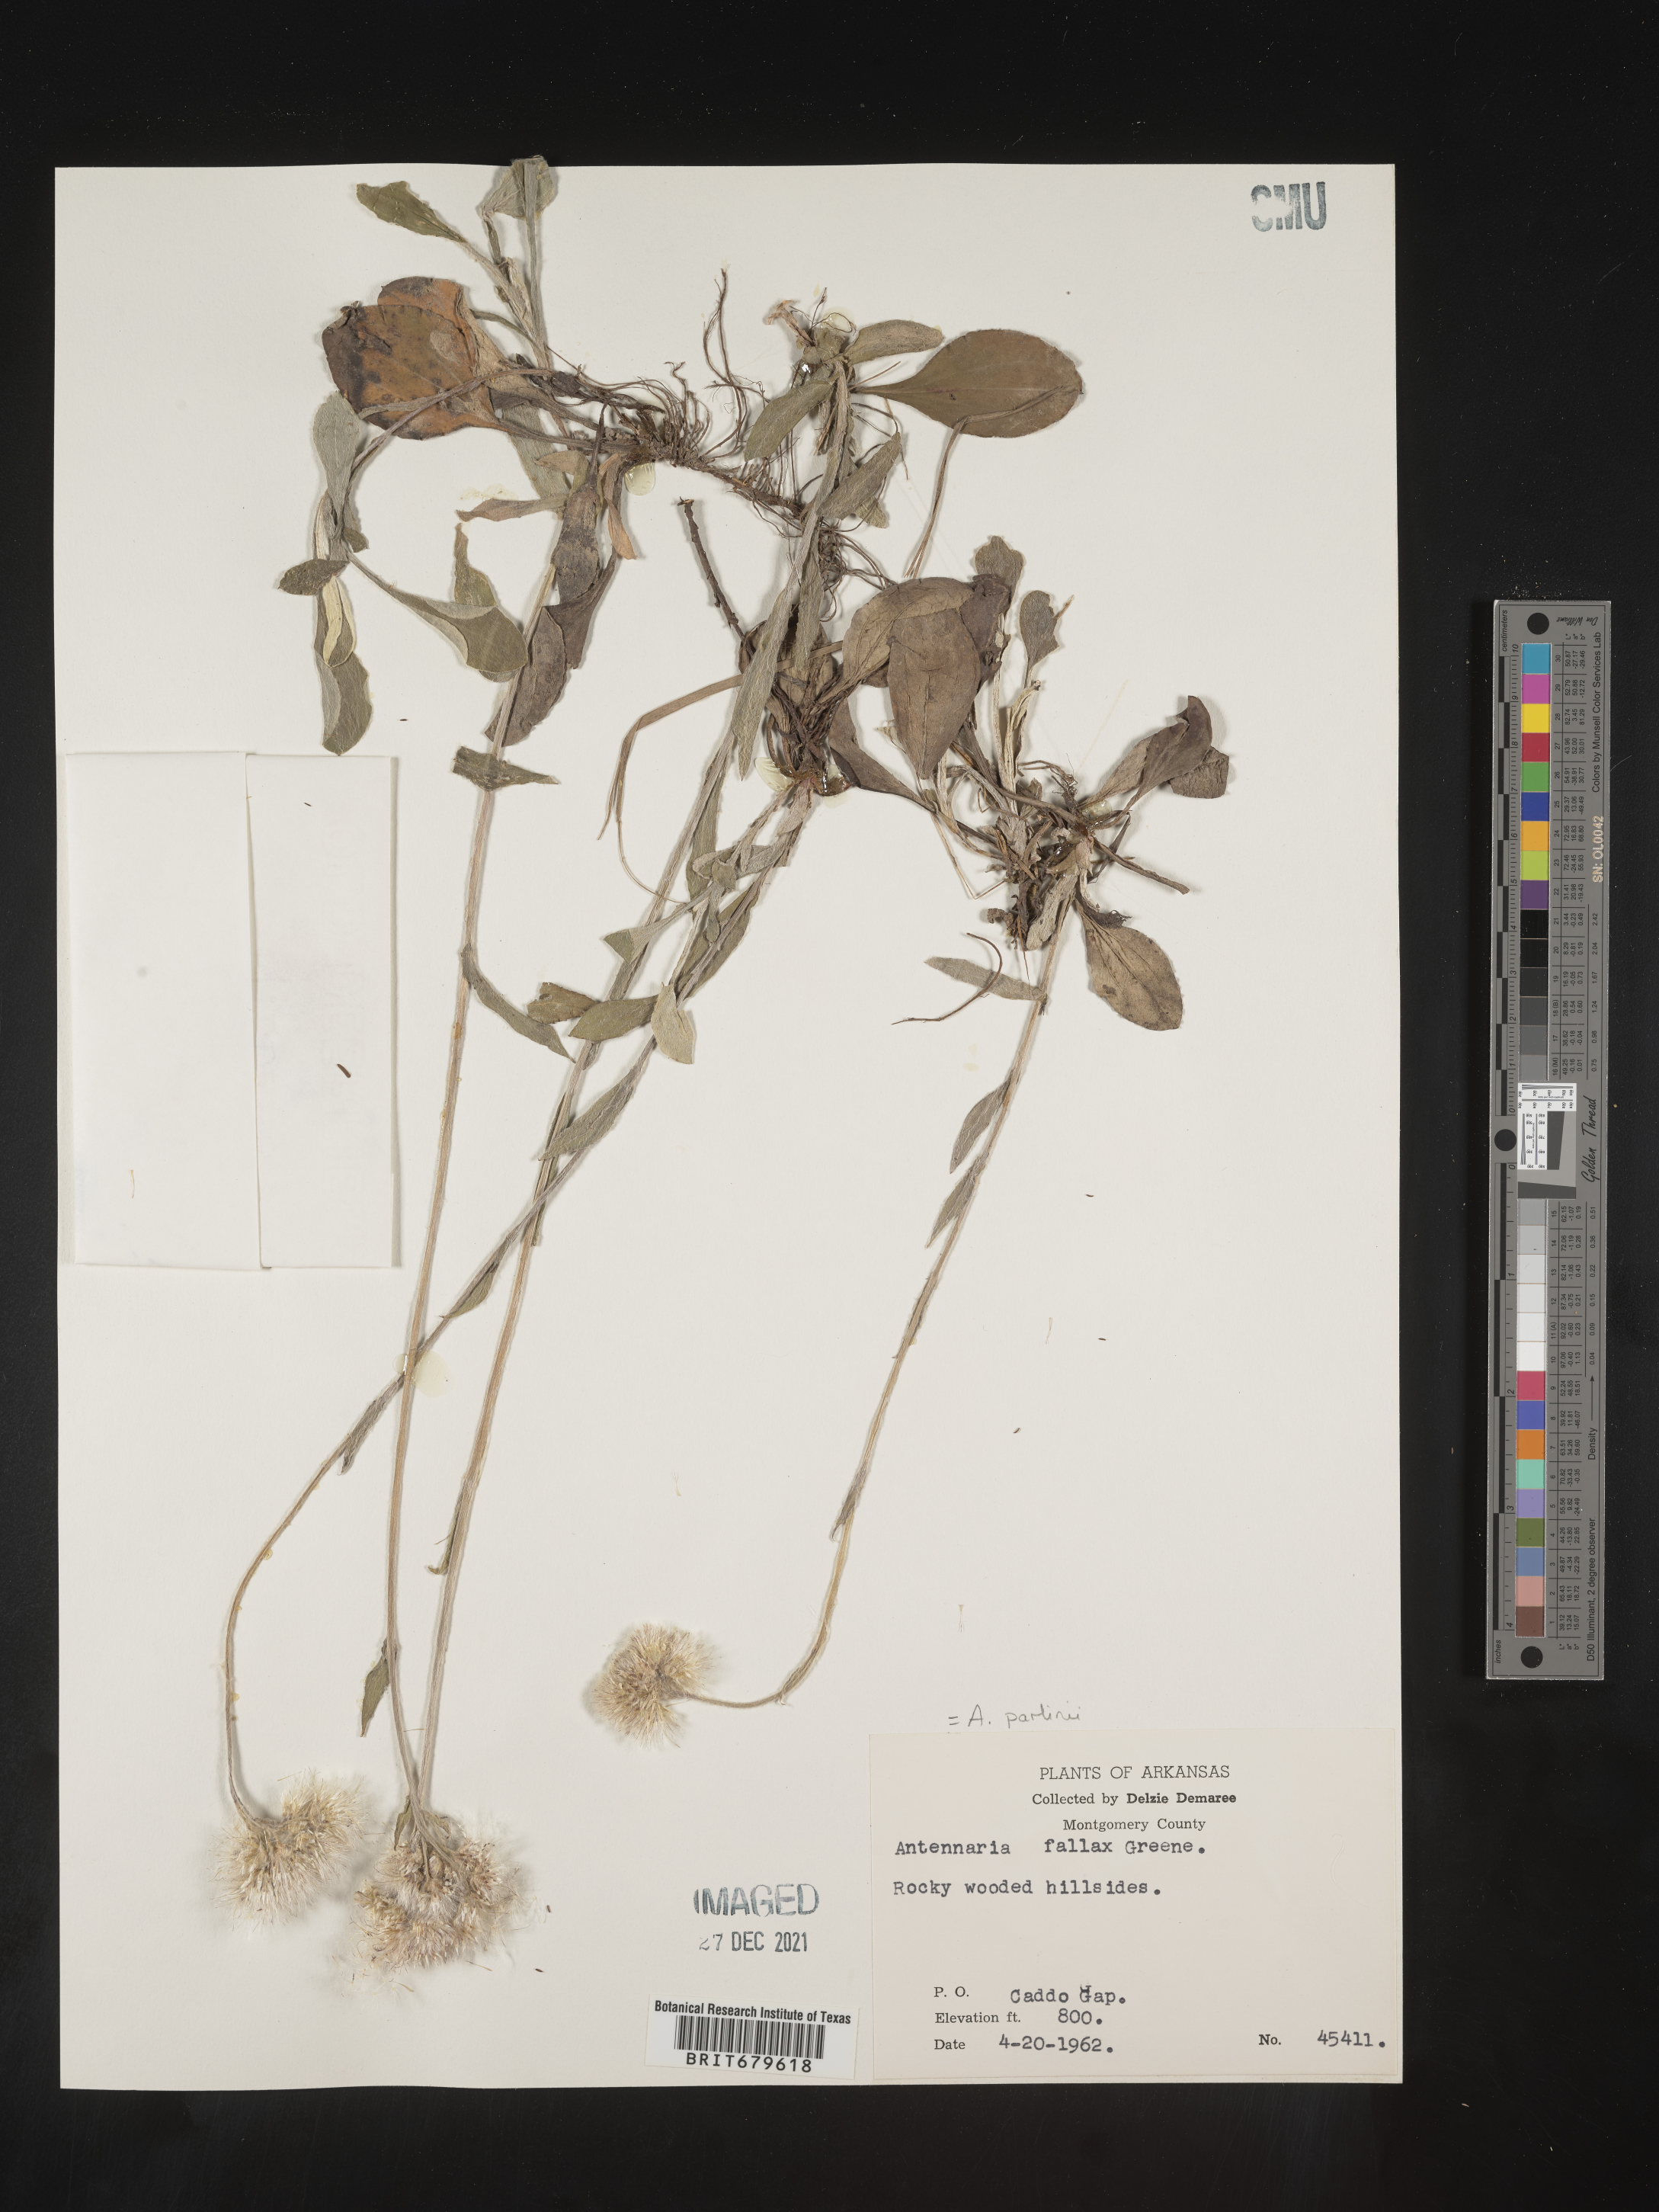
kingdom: Plantae
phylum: Tracheophyta
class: Magnoliopsida
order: Asterales
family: Asteraceae
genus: Antennaria
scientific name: Antennaria parlinii
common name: Parlin's pussytoes
